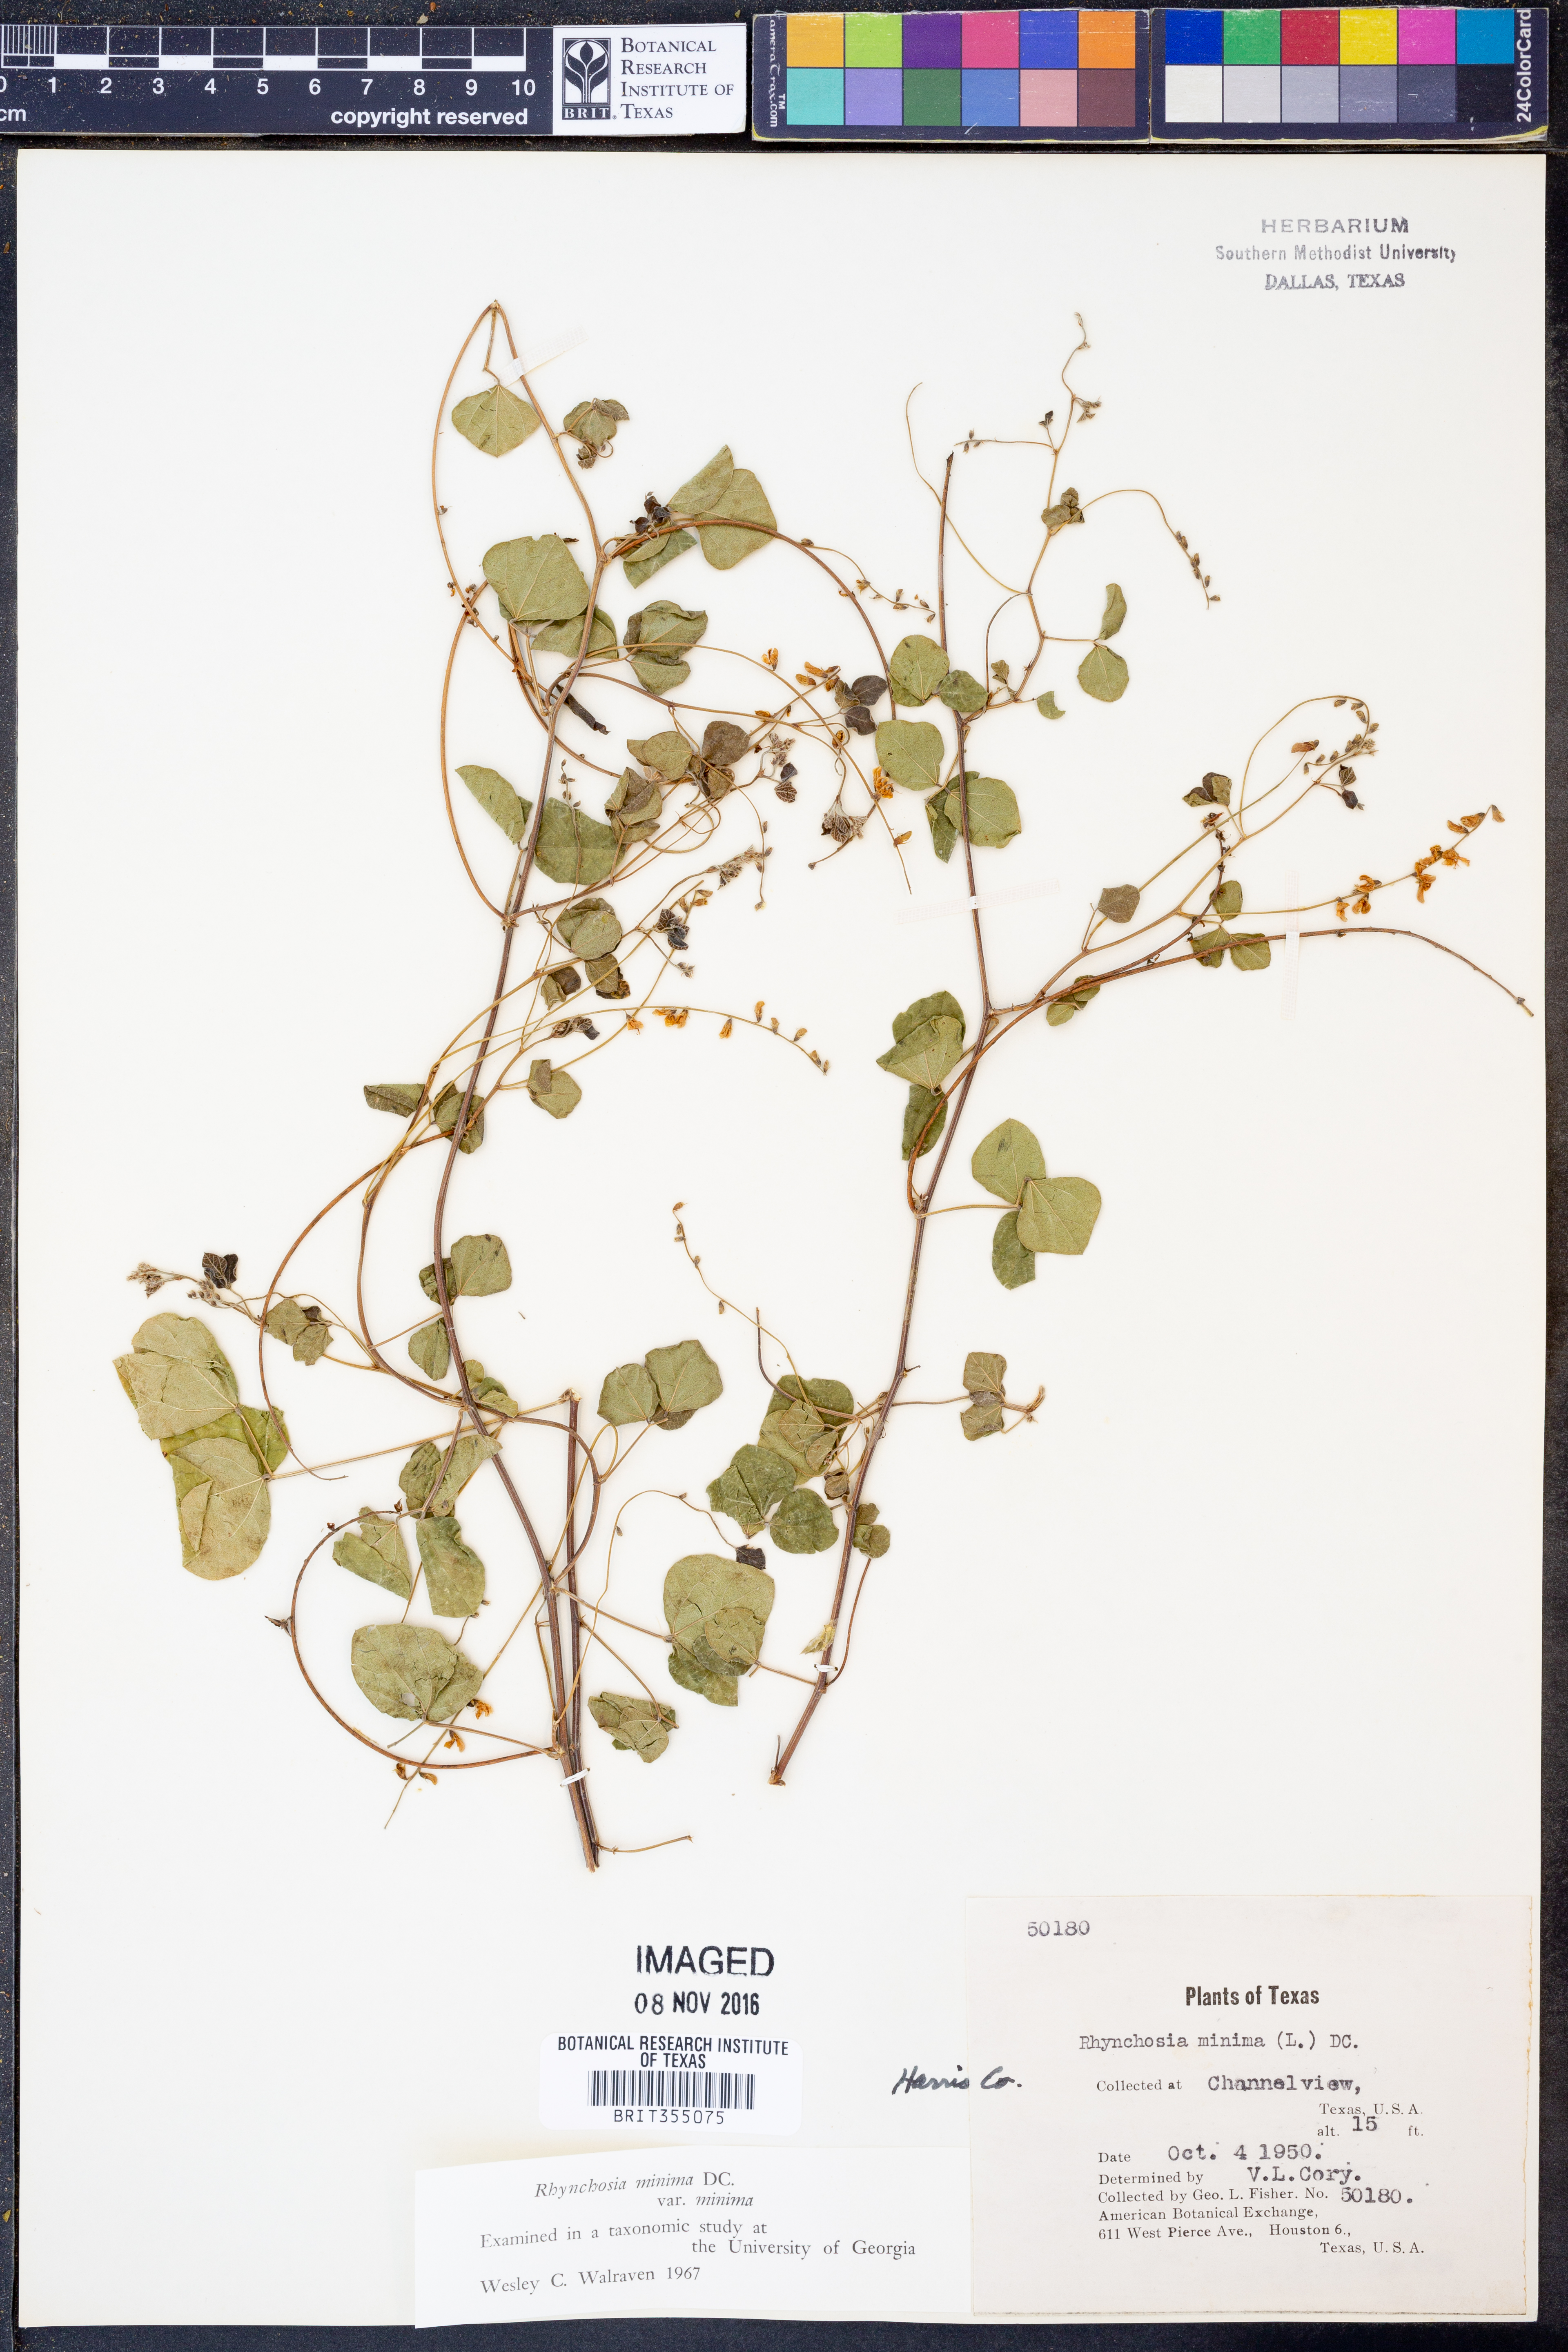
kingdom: Plantae
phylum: Tracheophyta
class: Magnoliopsida
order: Fabales
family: Fabaceae
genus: Rhynchosia
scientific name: Rhynchosia minima
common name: Least snoutbean
